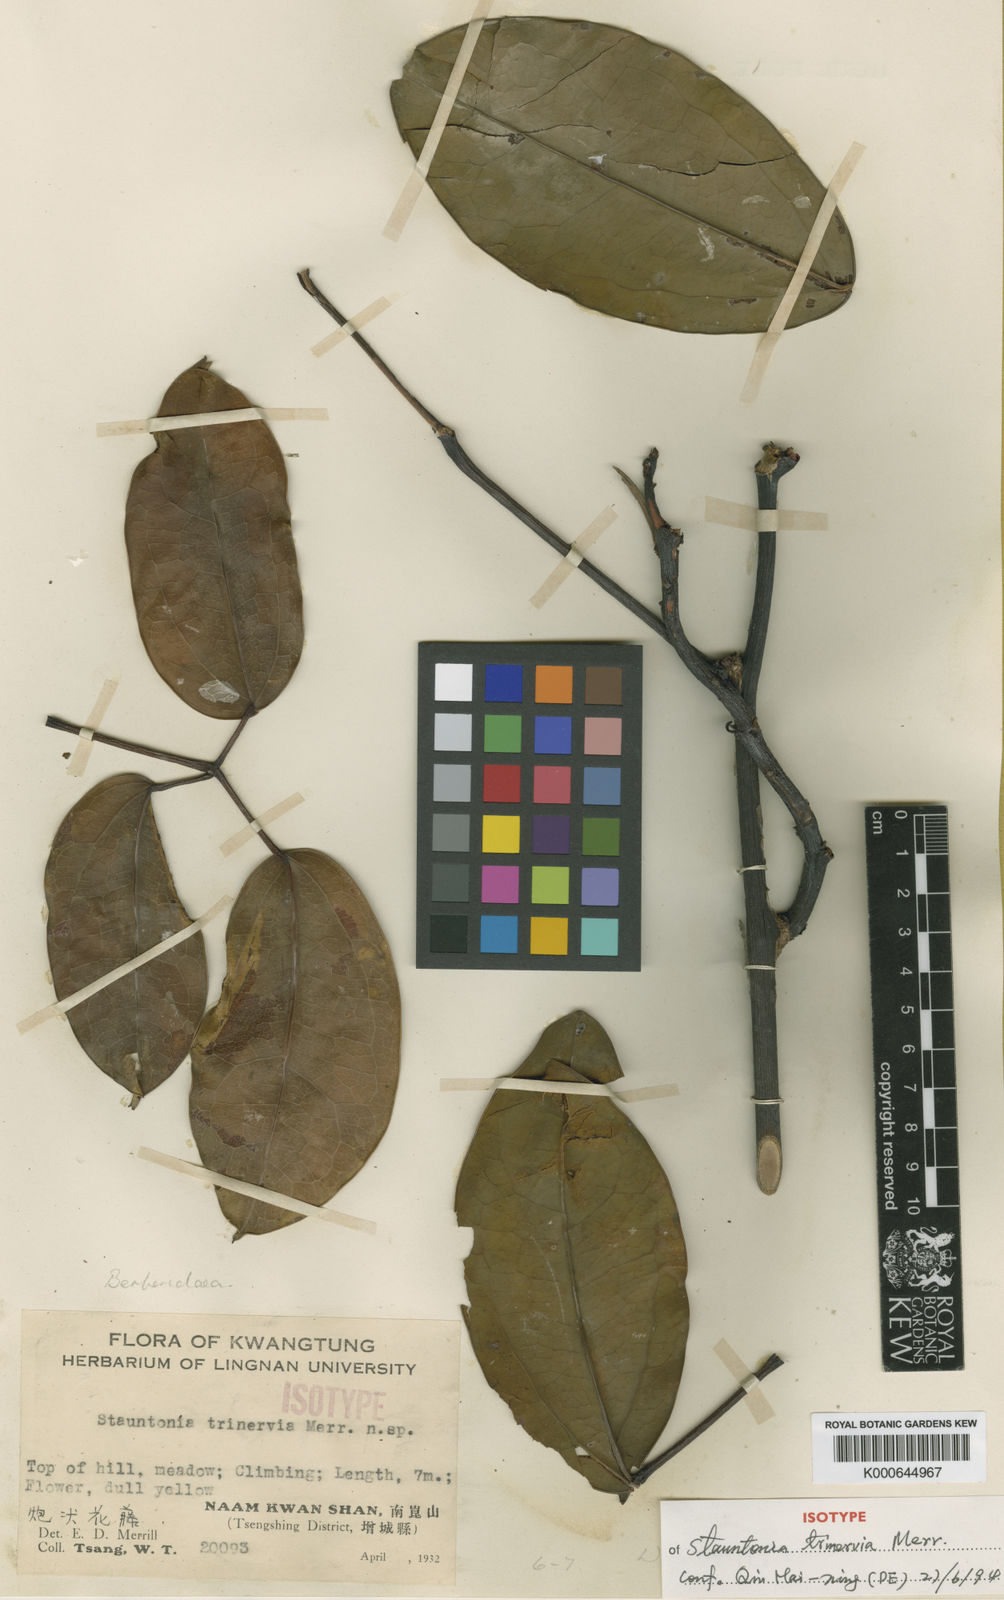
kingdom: Plantae
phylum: Tracheophyta
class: Magnoliopsida
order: Ranunculales
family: Lardizabalaceae
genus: Stauntonia
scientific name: Stauntonia trinervia
